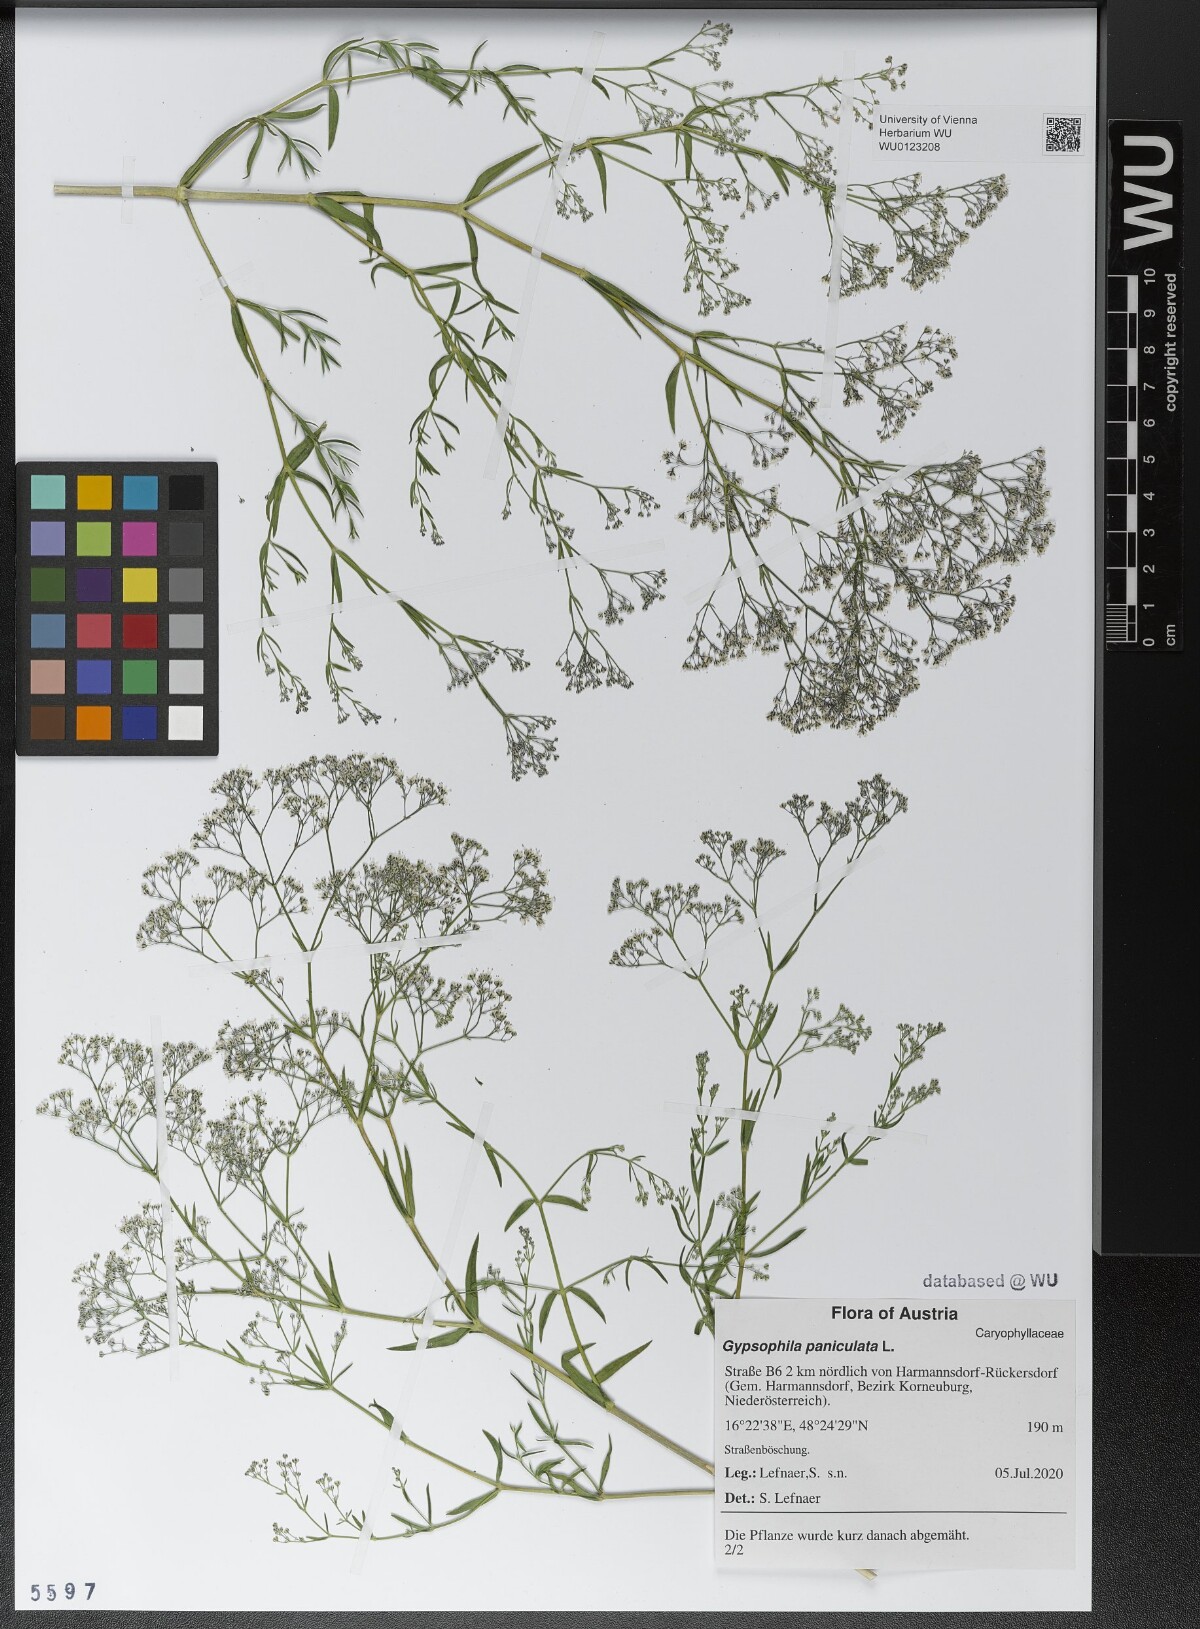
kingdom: Plantae
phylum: Tracheophyta
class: Magnoliopsida
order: Caryophyllales
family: Caryophyllaceae
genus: Gypsophila
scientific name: Gypsophila paniculata
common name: Baby's-breath
